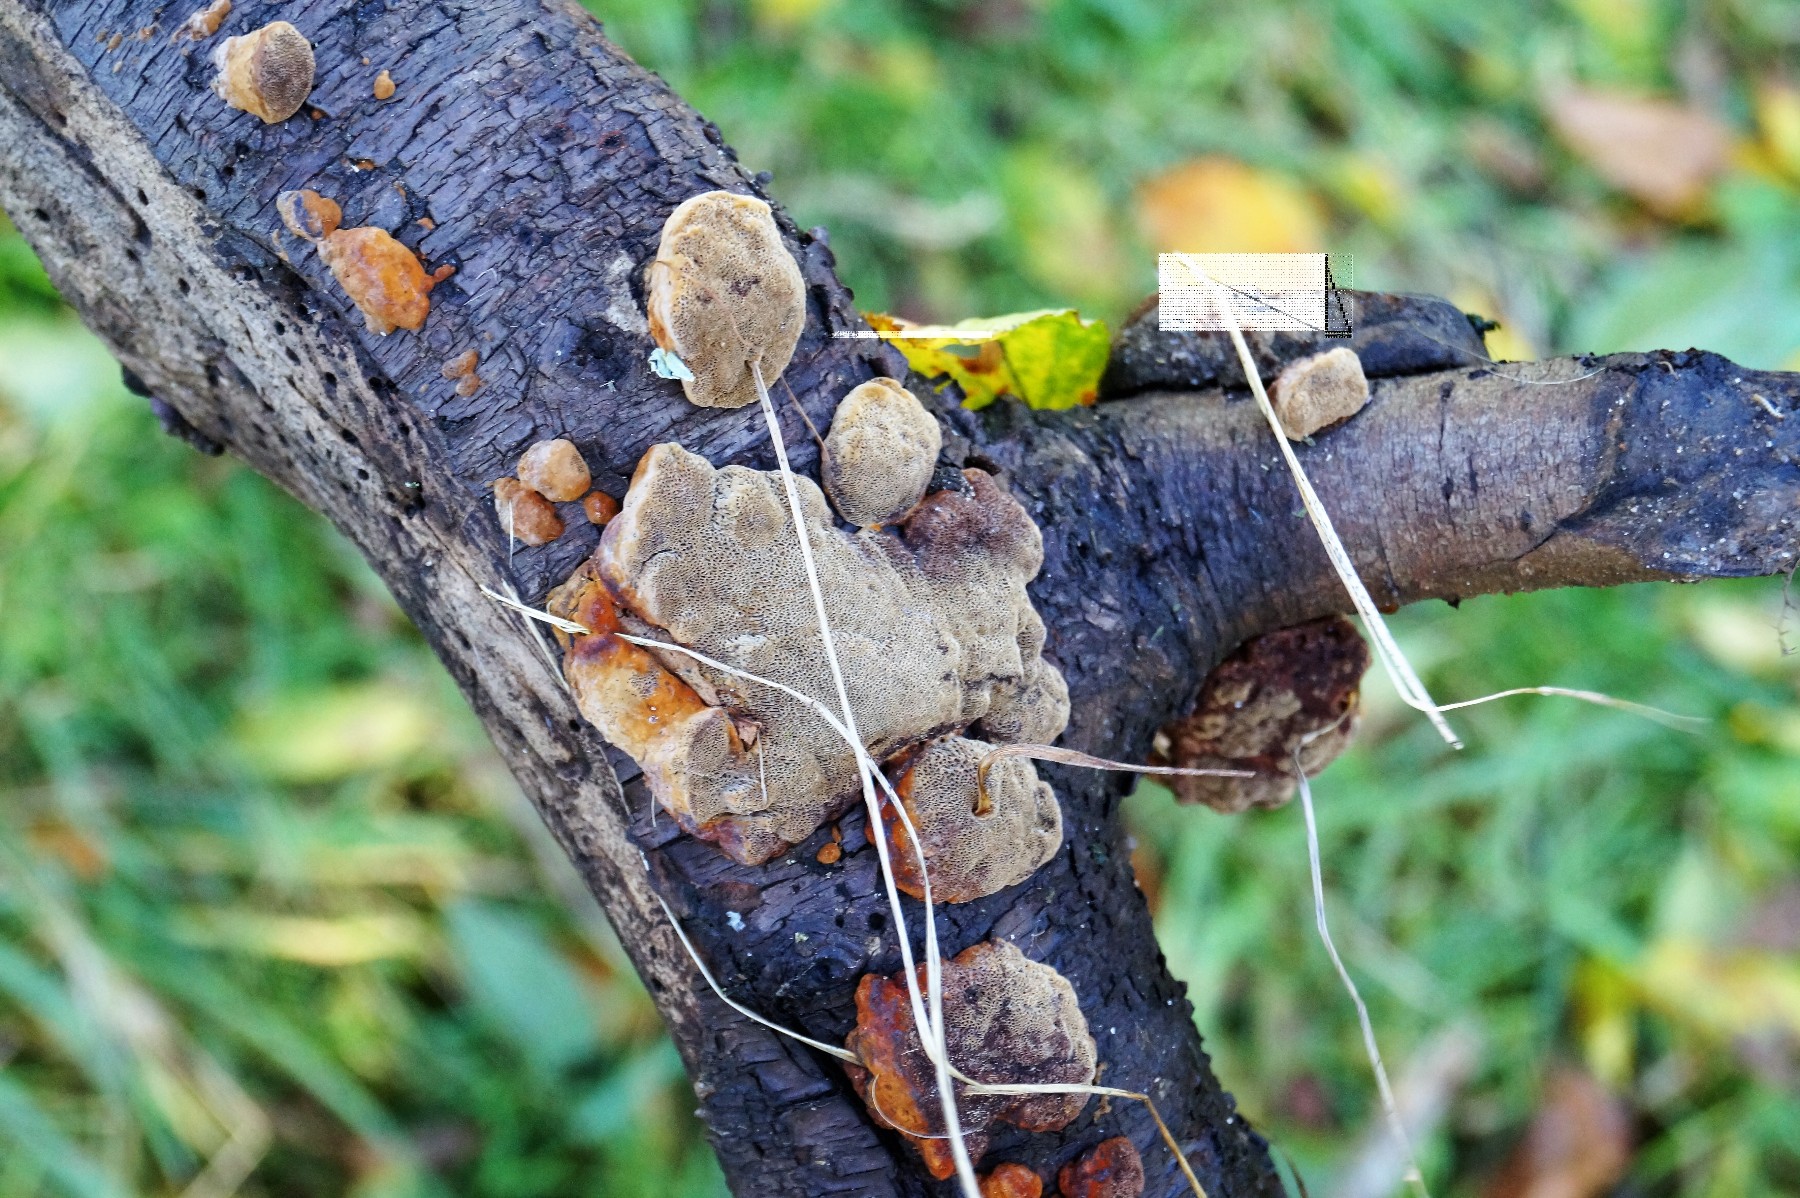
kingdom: Fungi
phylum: Basidiomycota
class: Agaricomycetes
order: Hymenochaetales
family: Hymenochaetaceae
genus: Phellinus
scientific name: Phellinus pomaceus
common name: blomme-ildporesvamp
